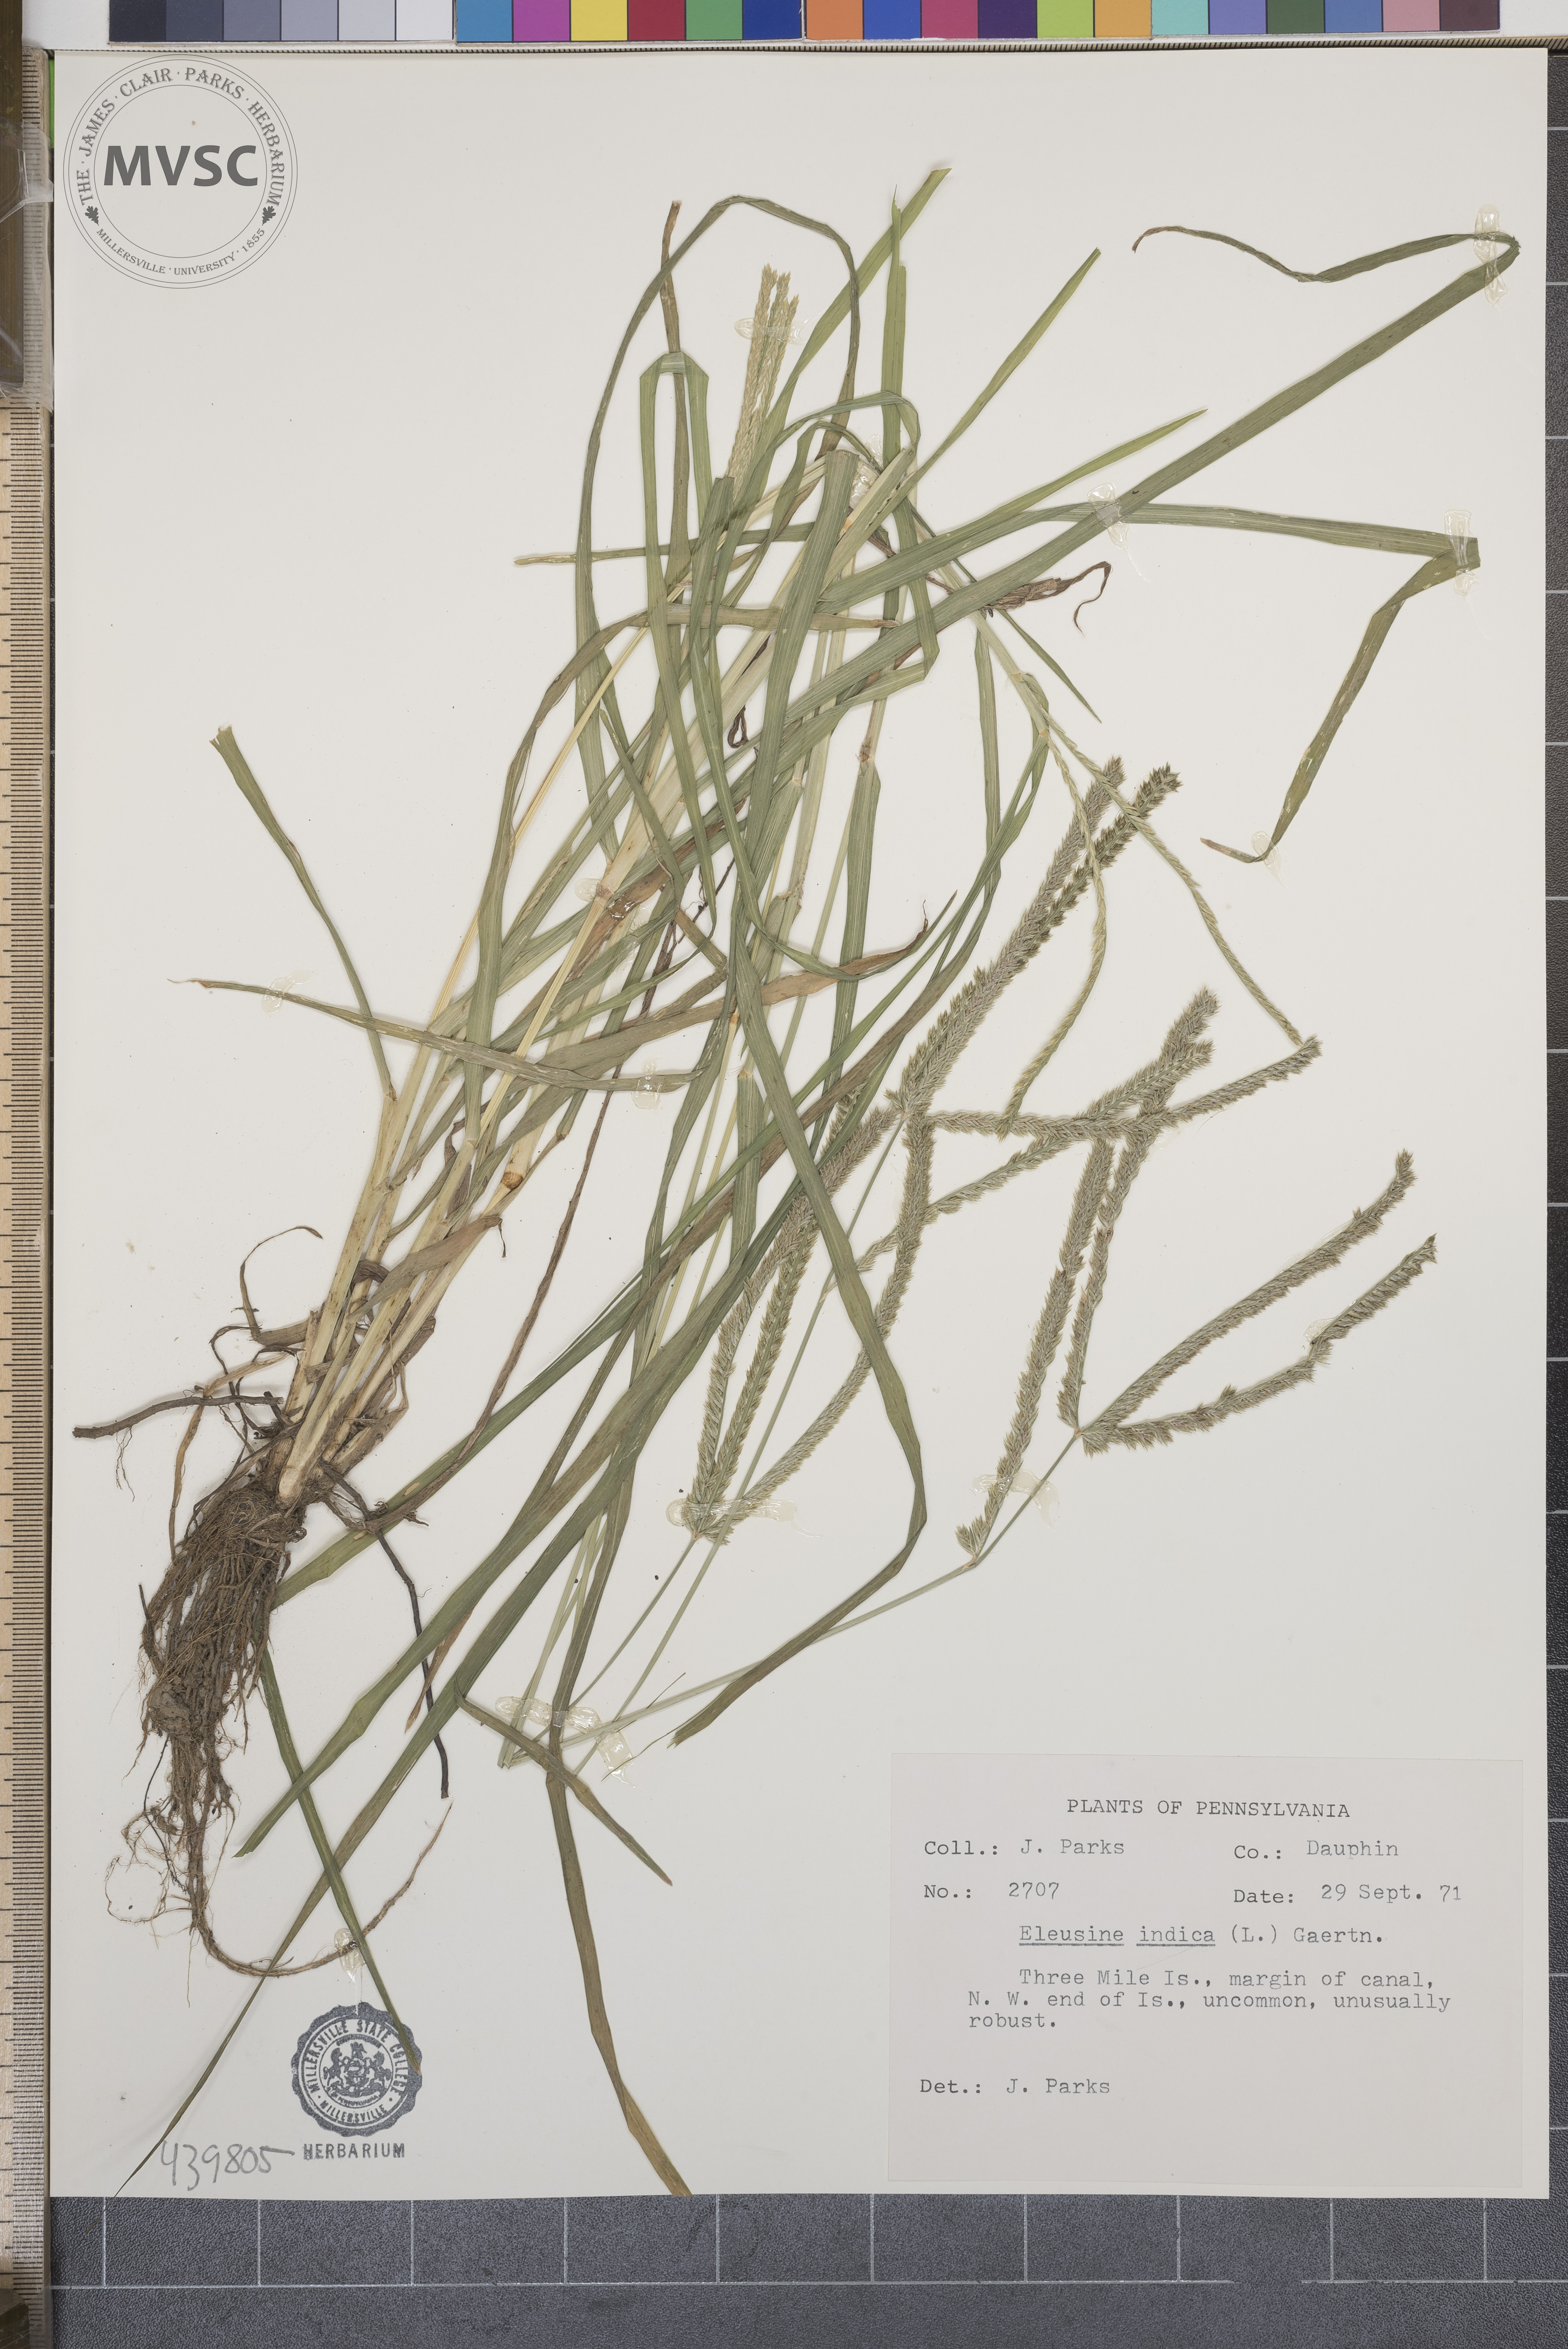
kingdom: Plantae
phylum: Tracheophyta
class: Liliopsida
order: Poales
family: Poaceae
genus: Eleusine
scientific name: Eleusine indica
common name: Yard-grass
